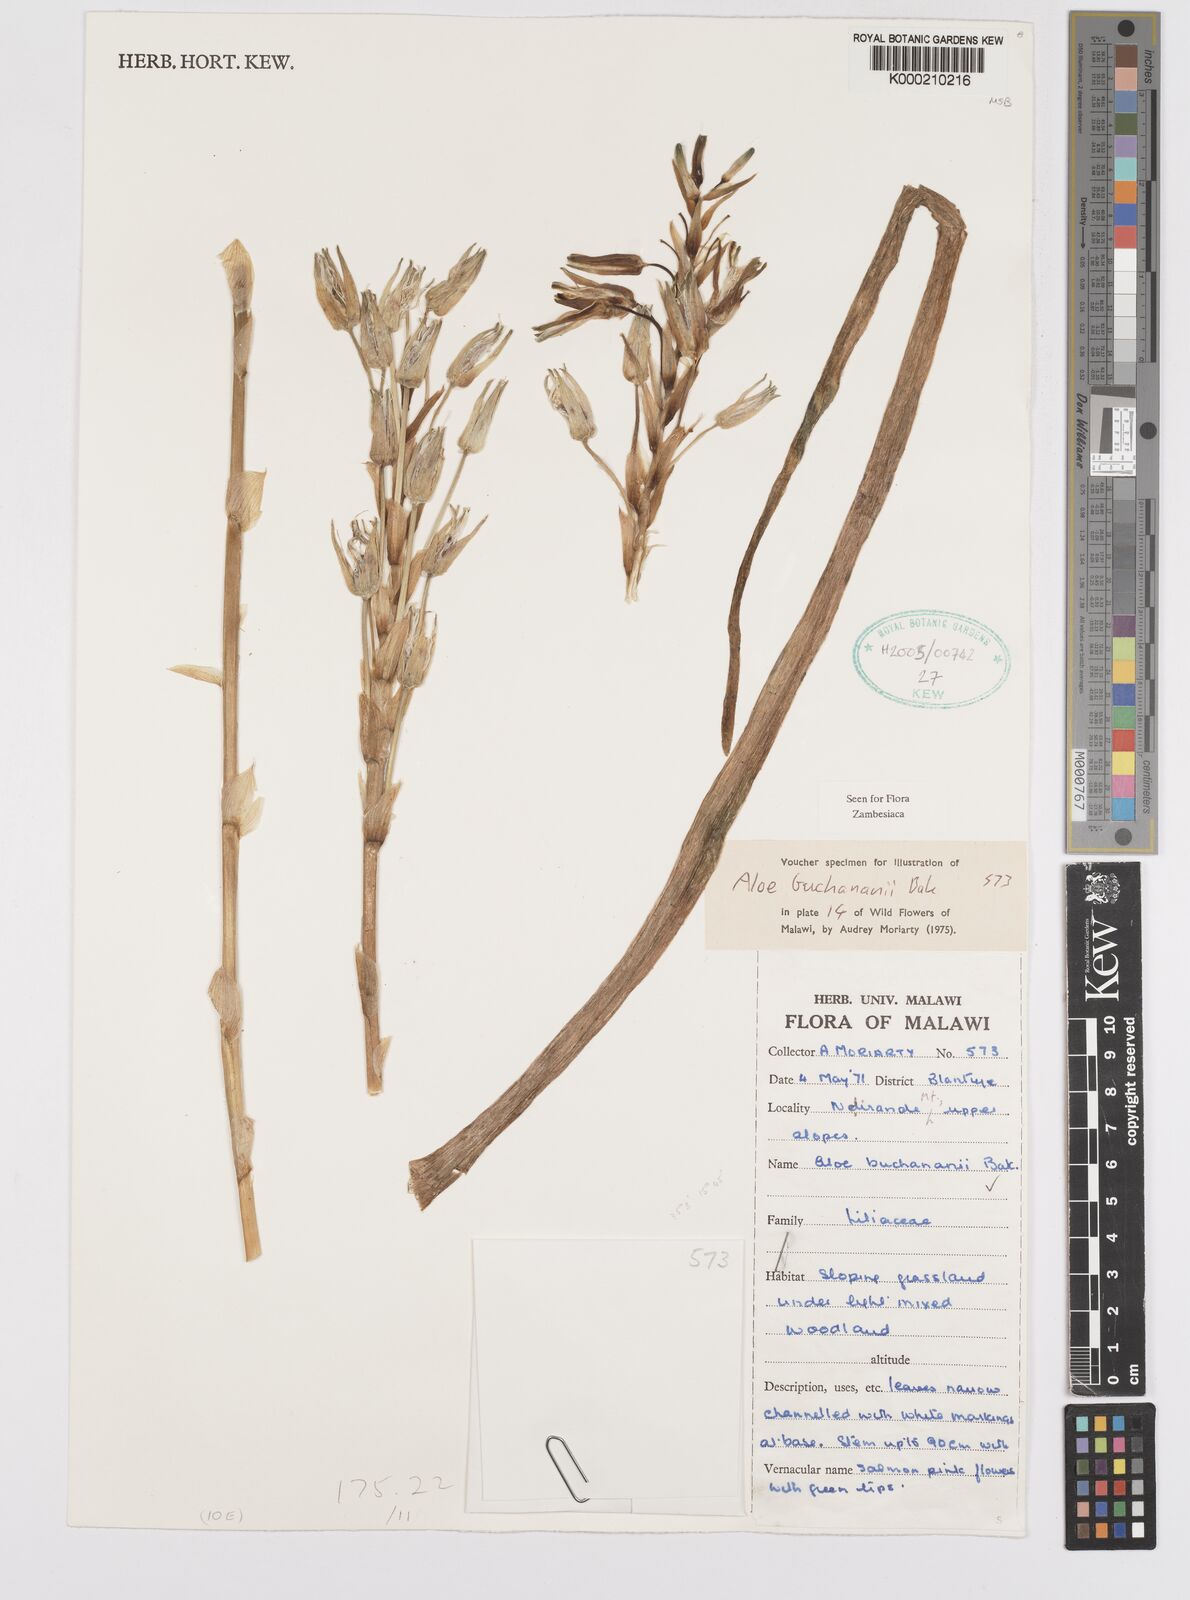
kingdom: Plantae
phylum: Tracheophyta
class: Liliopsida
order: Asparagales
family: Asphodelaceae
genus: Aloe
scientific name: Aloe buchananii
